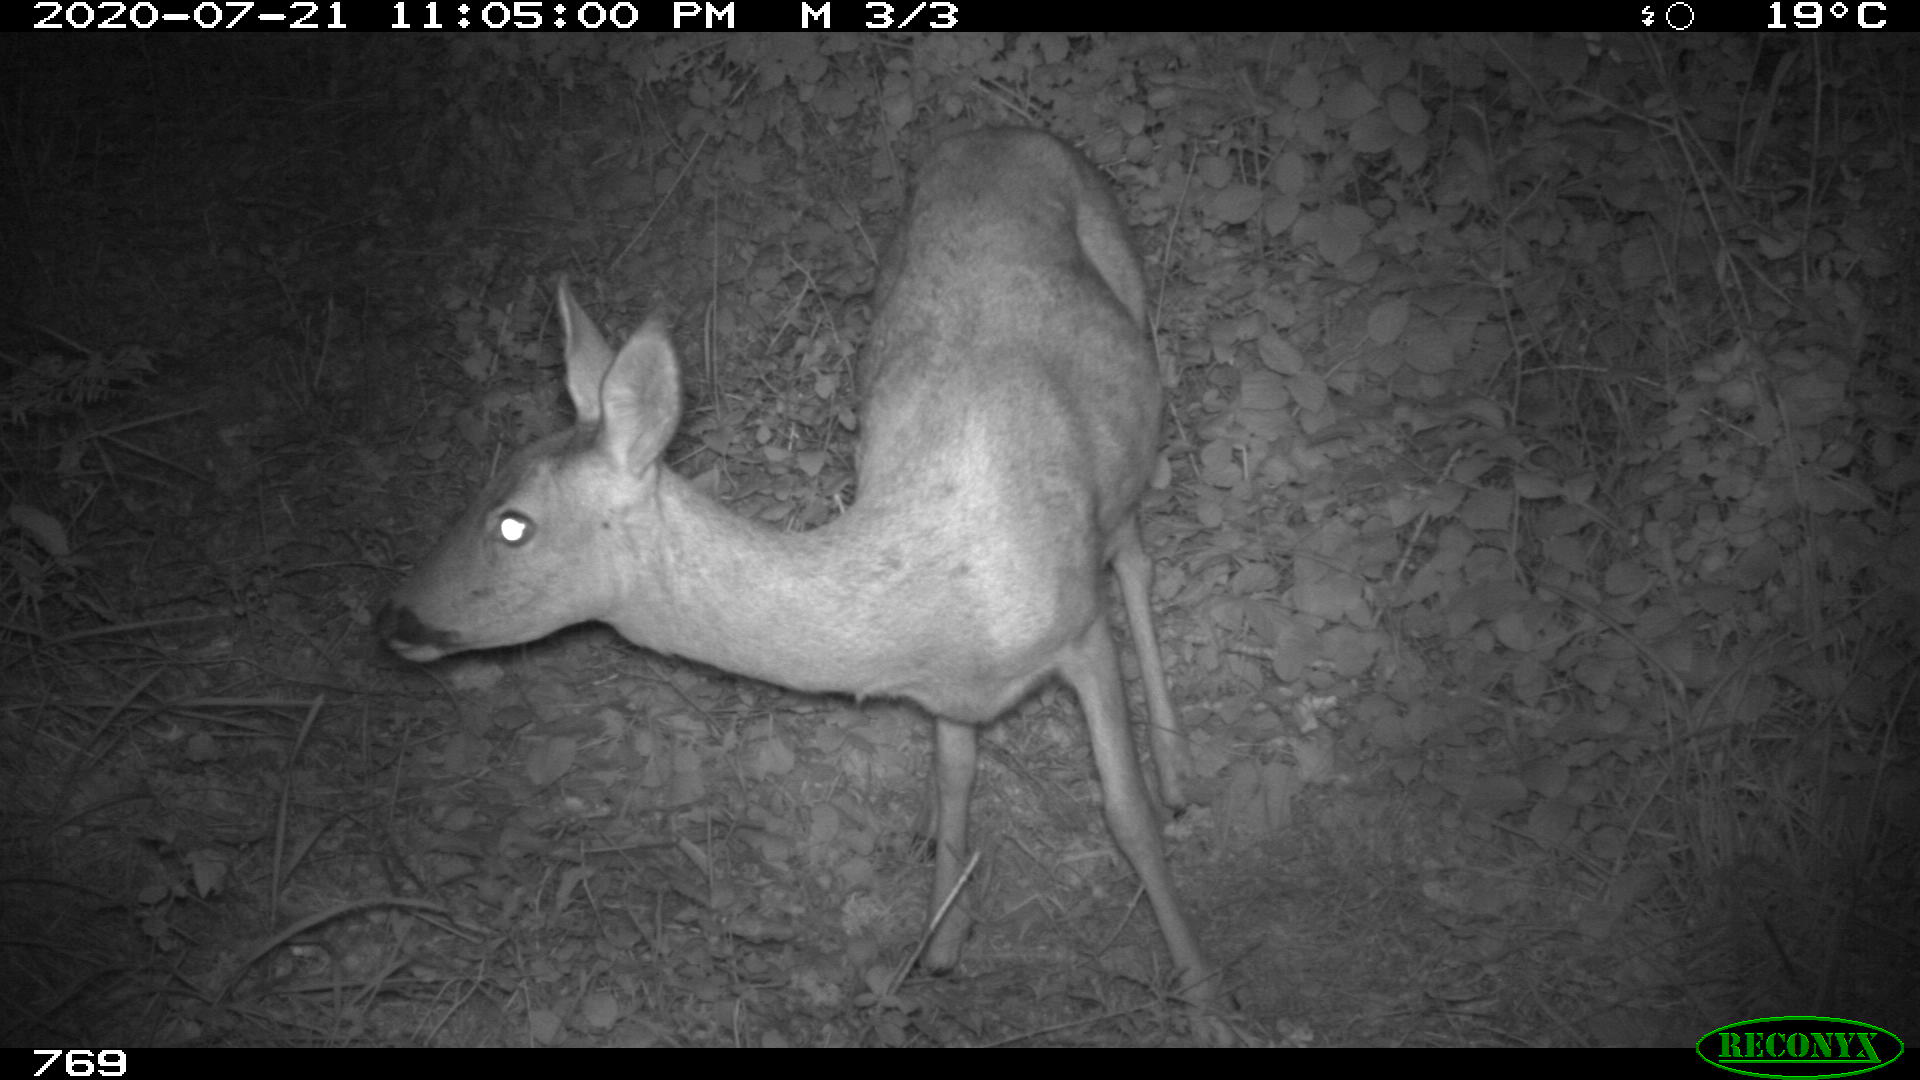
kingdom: Animalia
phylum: Chordata
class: Mammalia
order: Artiodactyla
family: Cervidae
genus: Capreolus
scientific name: Capreolus capreolus
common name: Western roe deer
